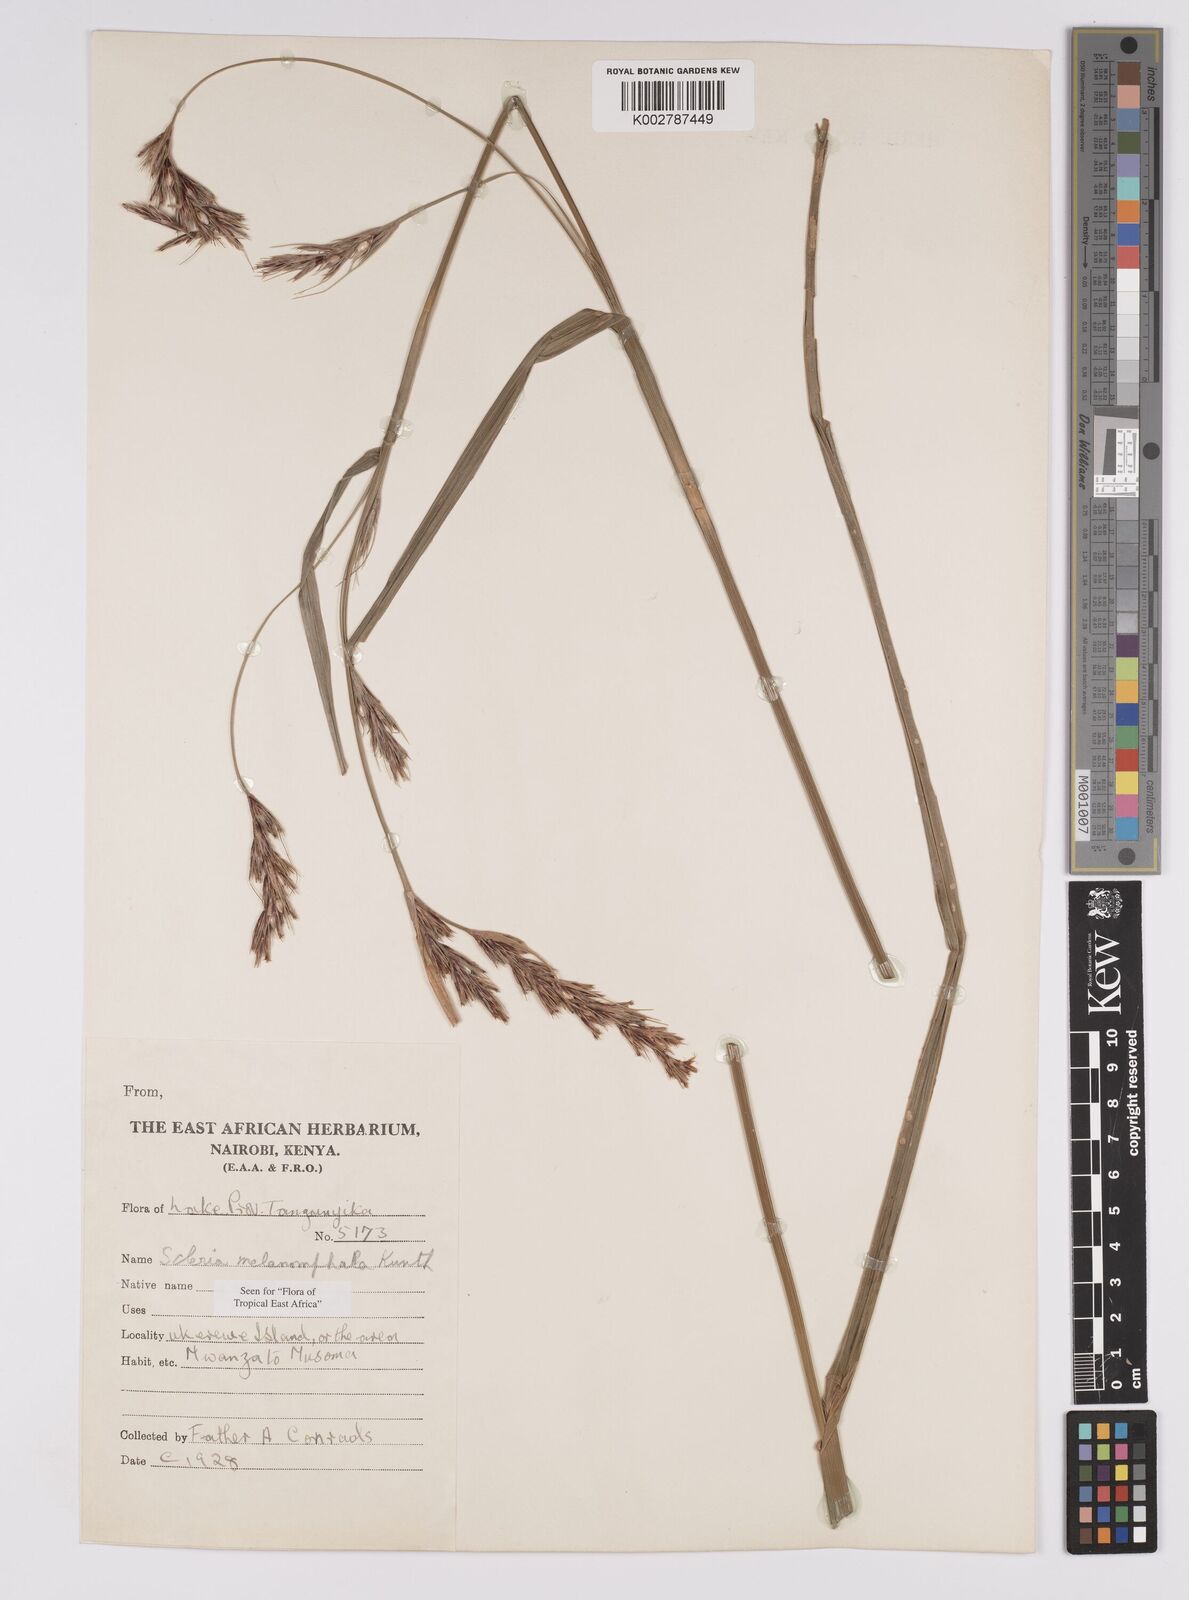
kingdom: Plantae
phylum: Tracheophyta
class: Liliopsida
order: Poales
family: Cyperaceae
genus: Scleria
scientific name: Scleria melanomphala
